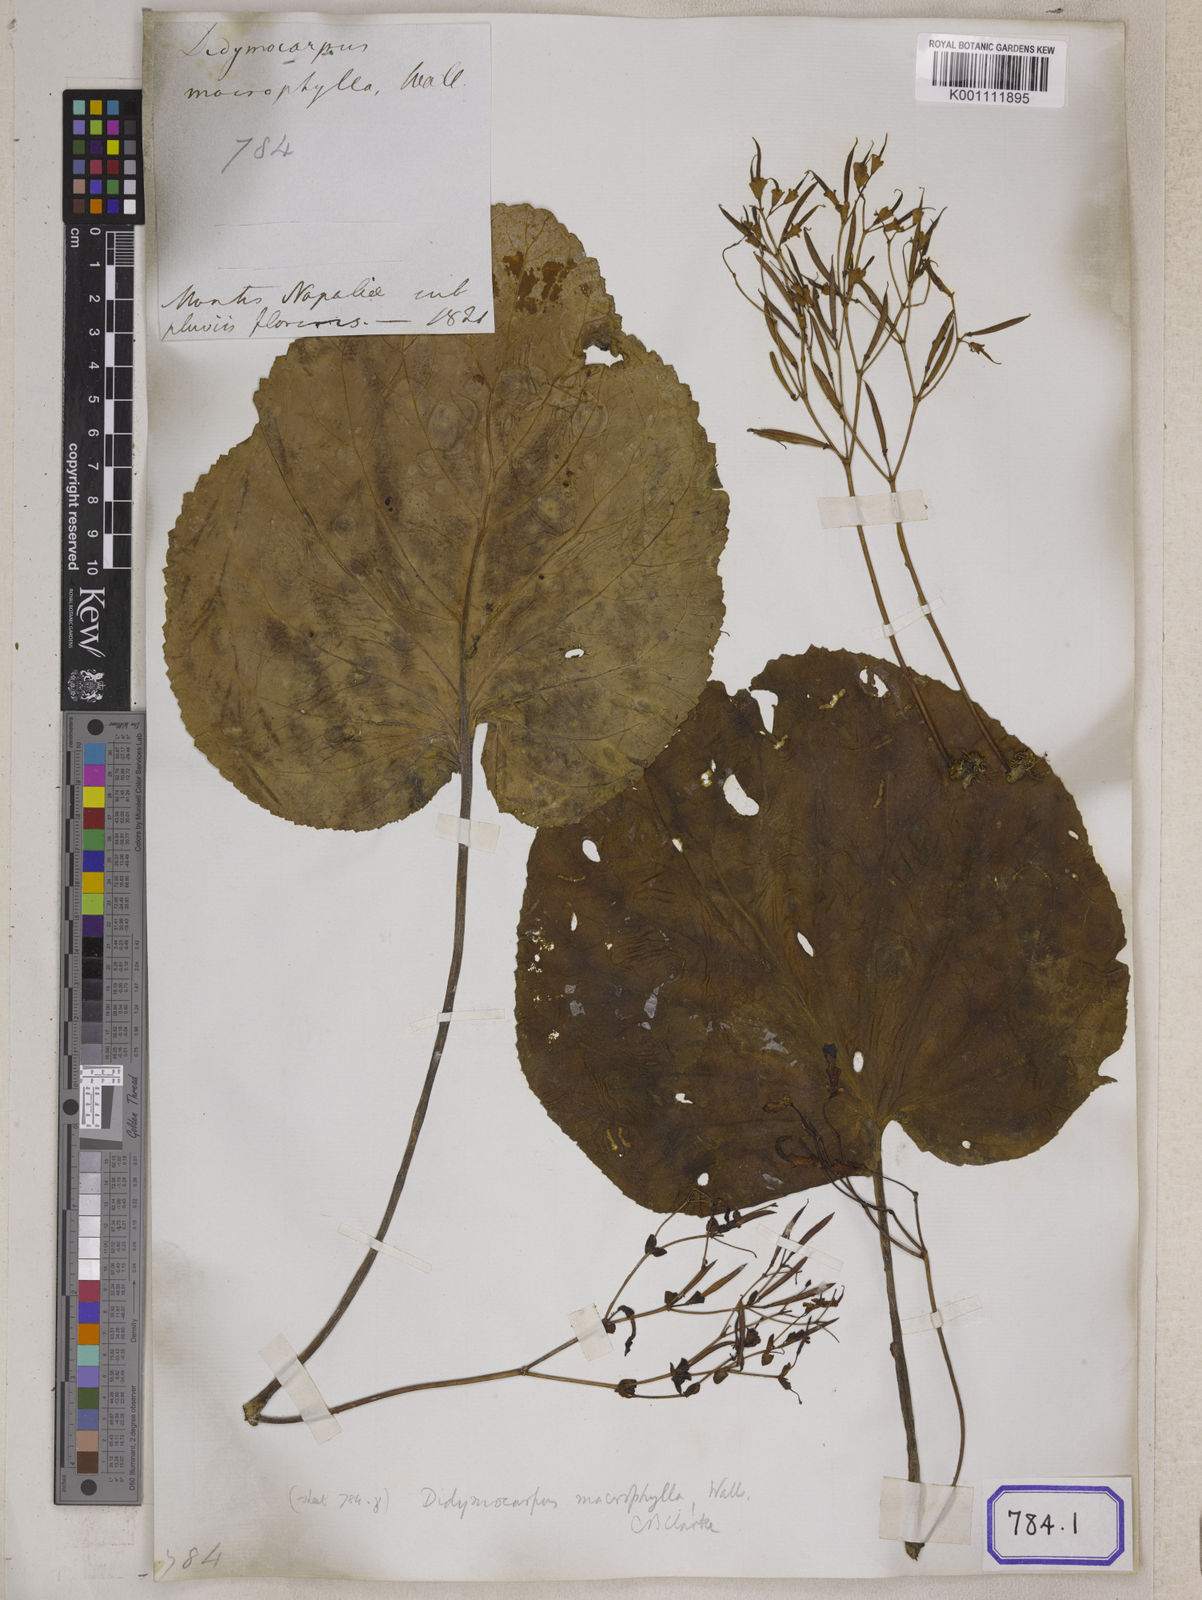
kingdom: Plantae
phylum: Tracheophyta
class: Magnoliopsida
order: Lamiales
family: Gesneriaceae
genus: Didymocarpus
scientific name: Didymocarpus
